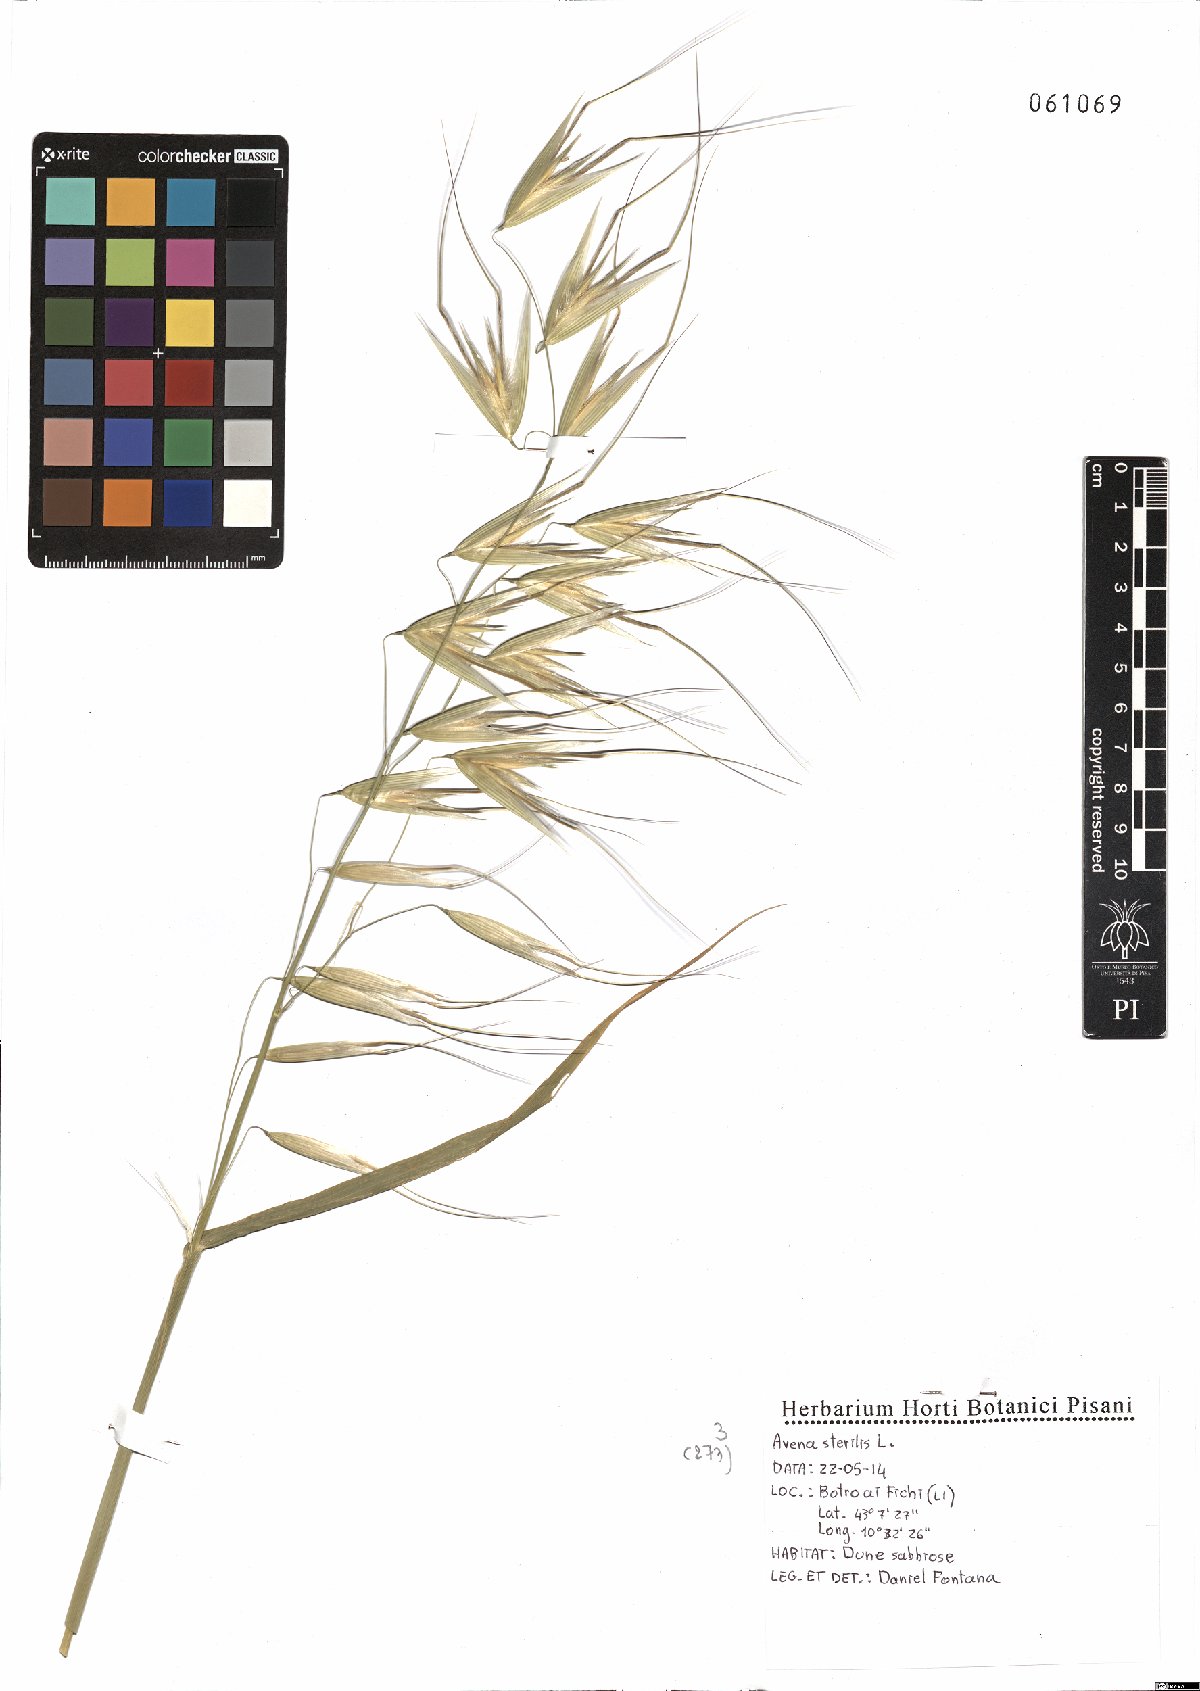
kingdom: Plantae
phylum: Tracheophyta
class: Liliopsida
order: Poales
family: Poaceae
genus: Avena
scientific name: Avena sterilis
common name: Animated oat
